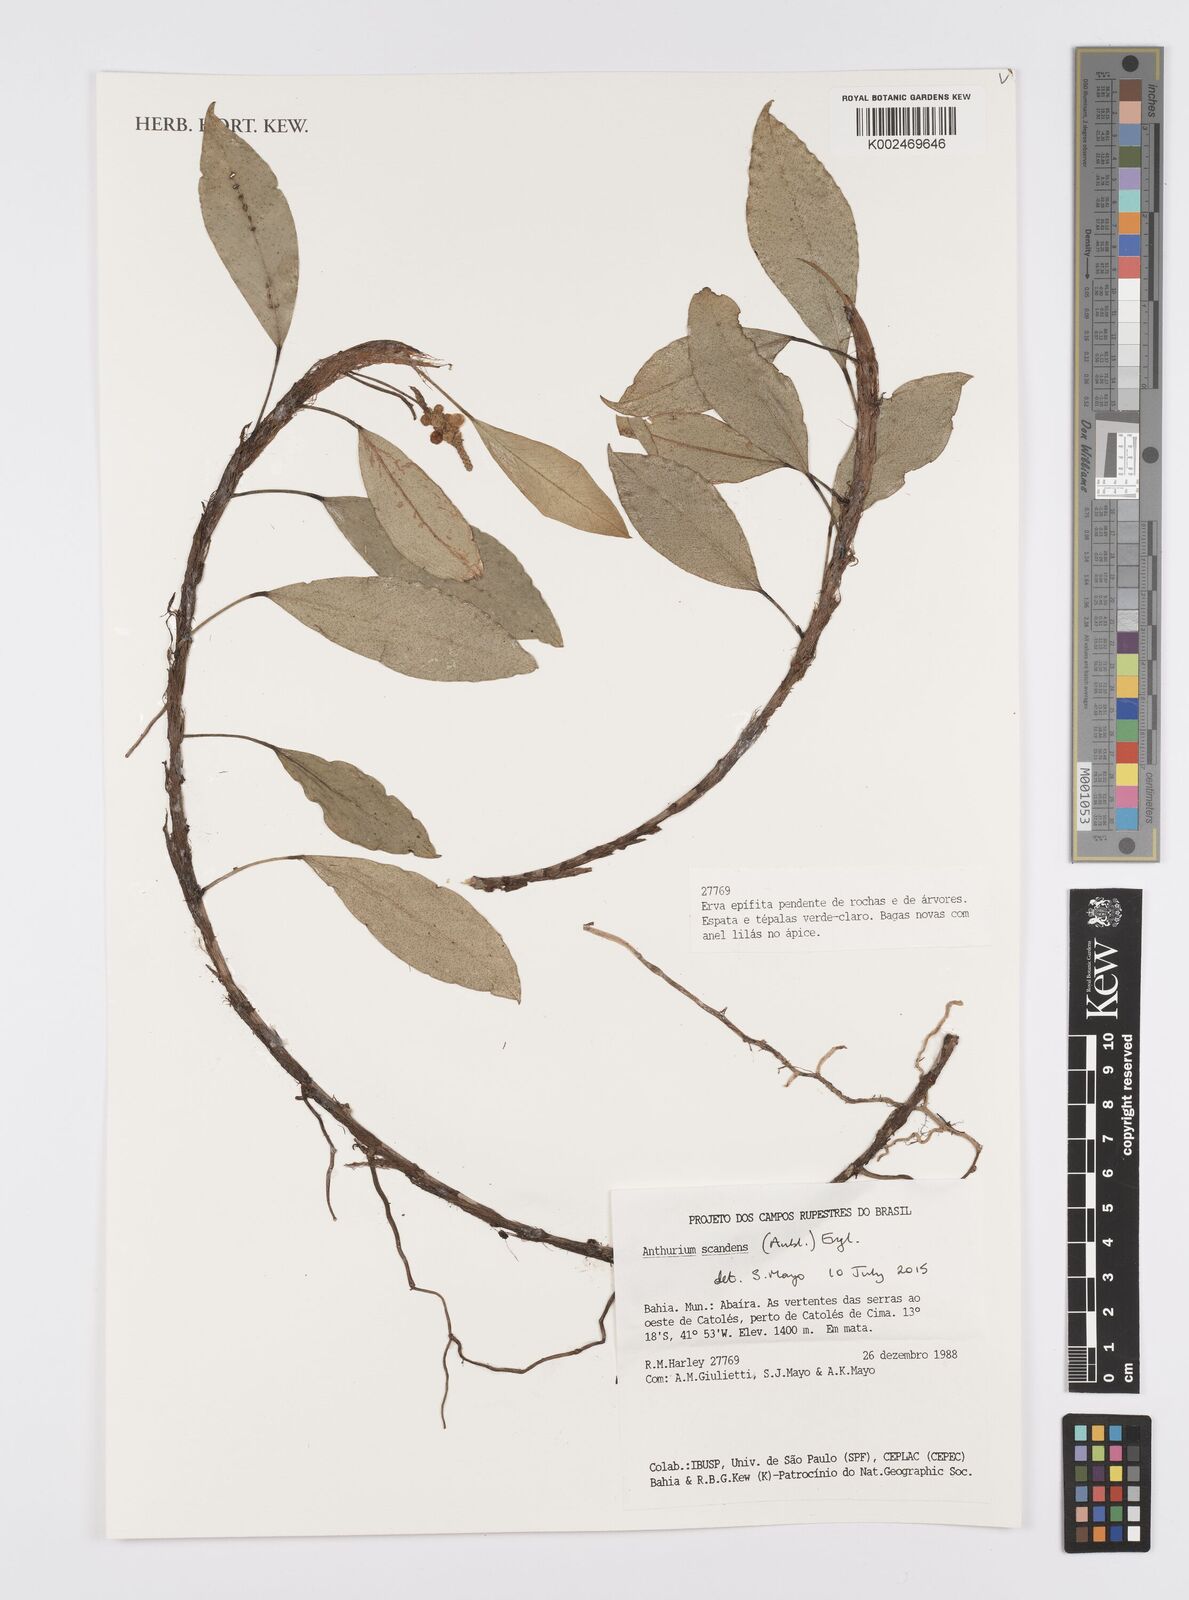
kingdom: Plantae
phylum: Tracheophyta
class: Liliopsida
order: Alismatales
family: Araceae
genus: Anthurium
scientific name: Anthurium scandens
